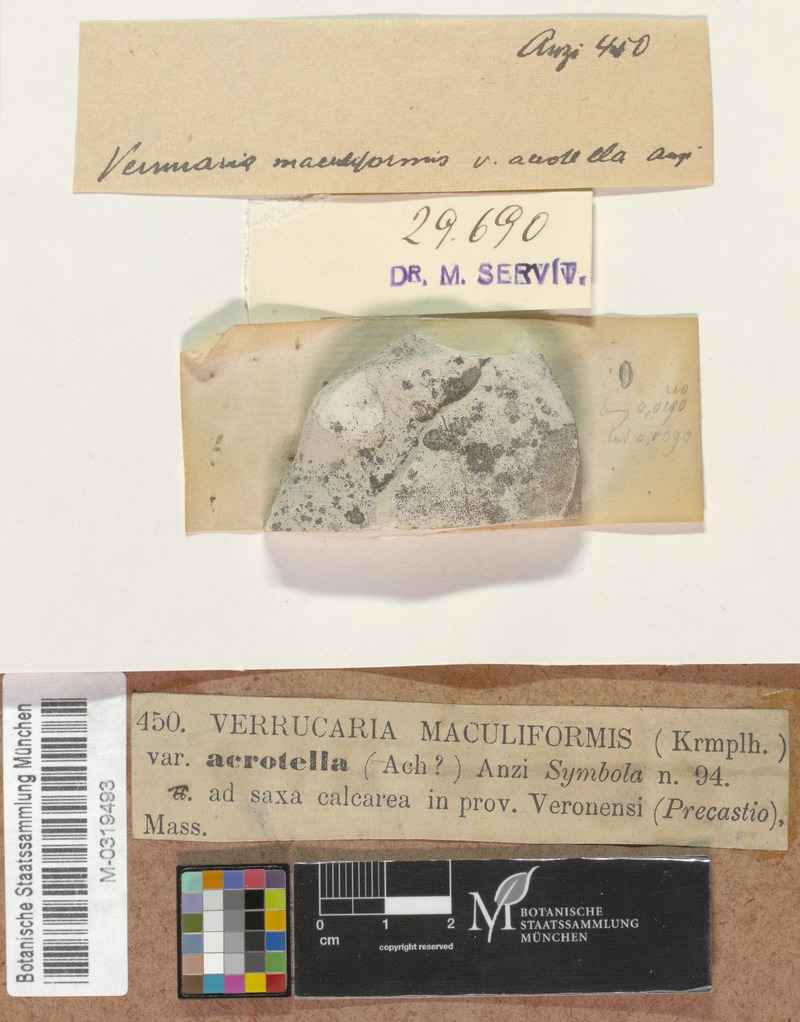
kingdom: Fungi
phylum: Ascomycota
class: Eurotiomycetes
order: Verrucariales
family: Verrucariaceae
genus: Verrucaria
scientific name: Verrucaria acrotella
